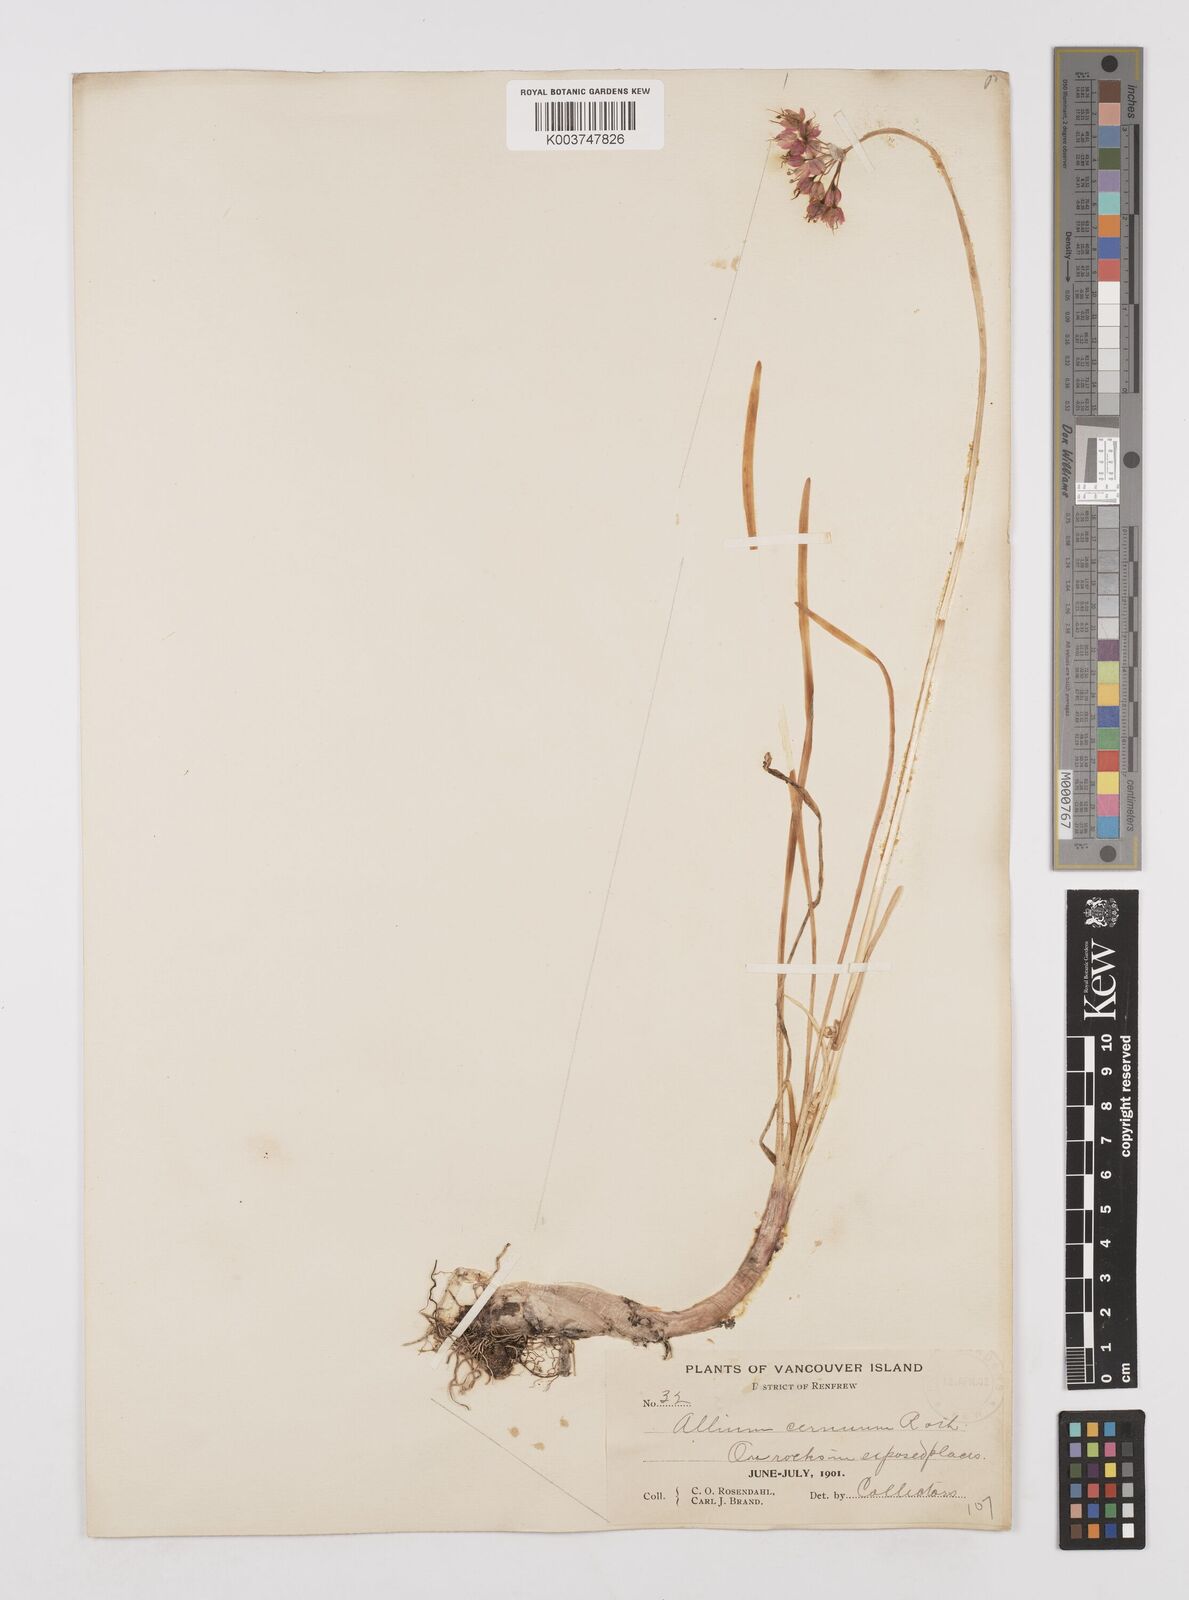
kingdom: Plantae
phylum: Tracheophyta
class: Liliopsida
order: Asparagales
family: Amaryllidaceae
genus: Allium
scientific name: Allium cernuum
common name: Nodding onion
